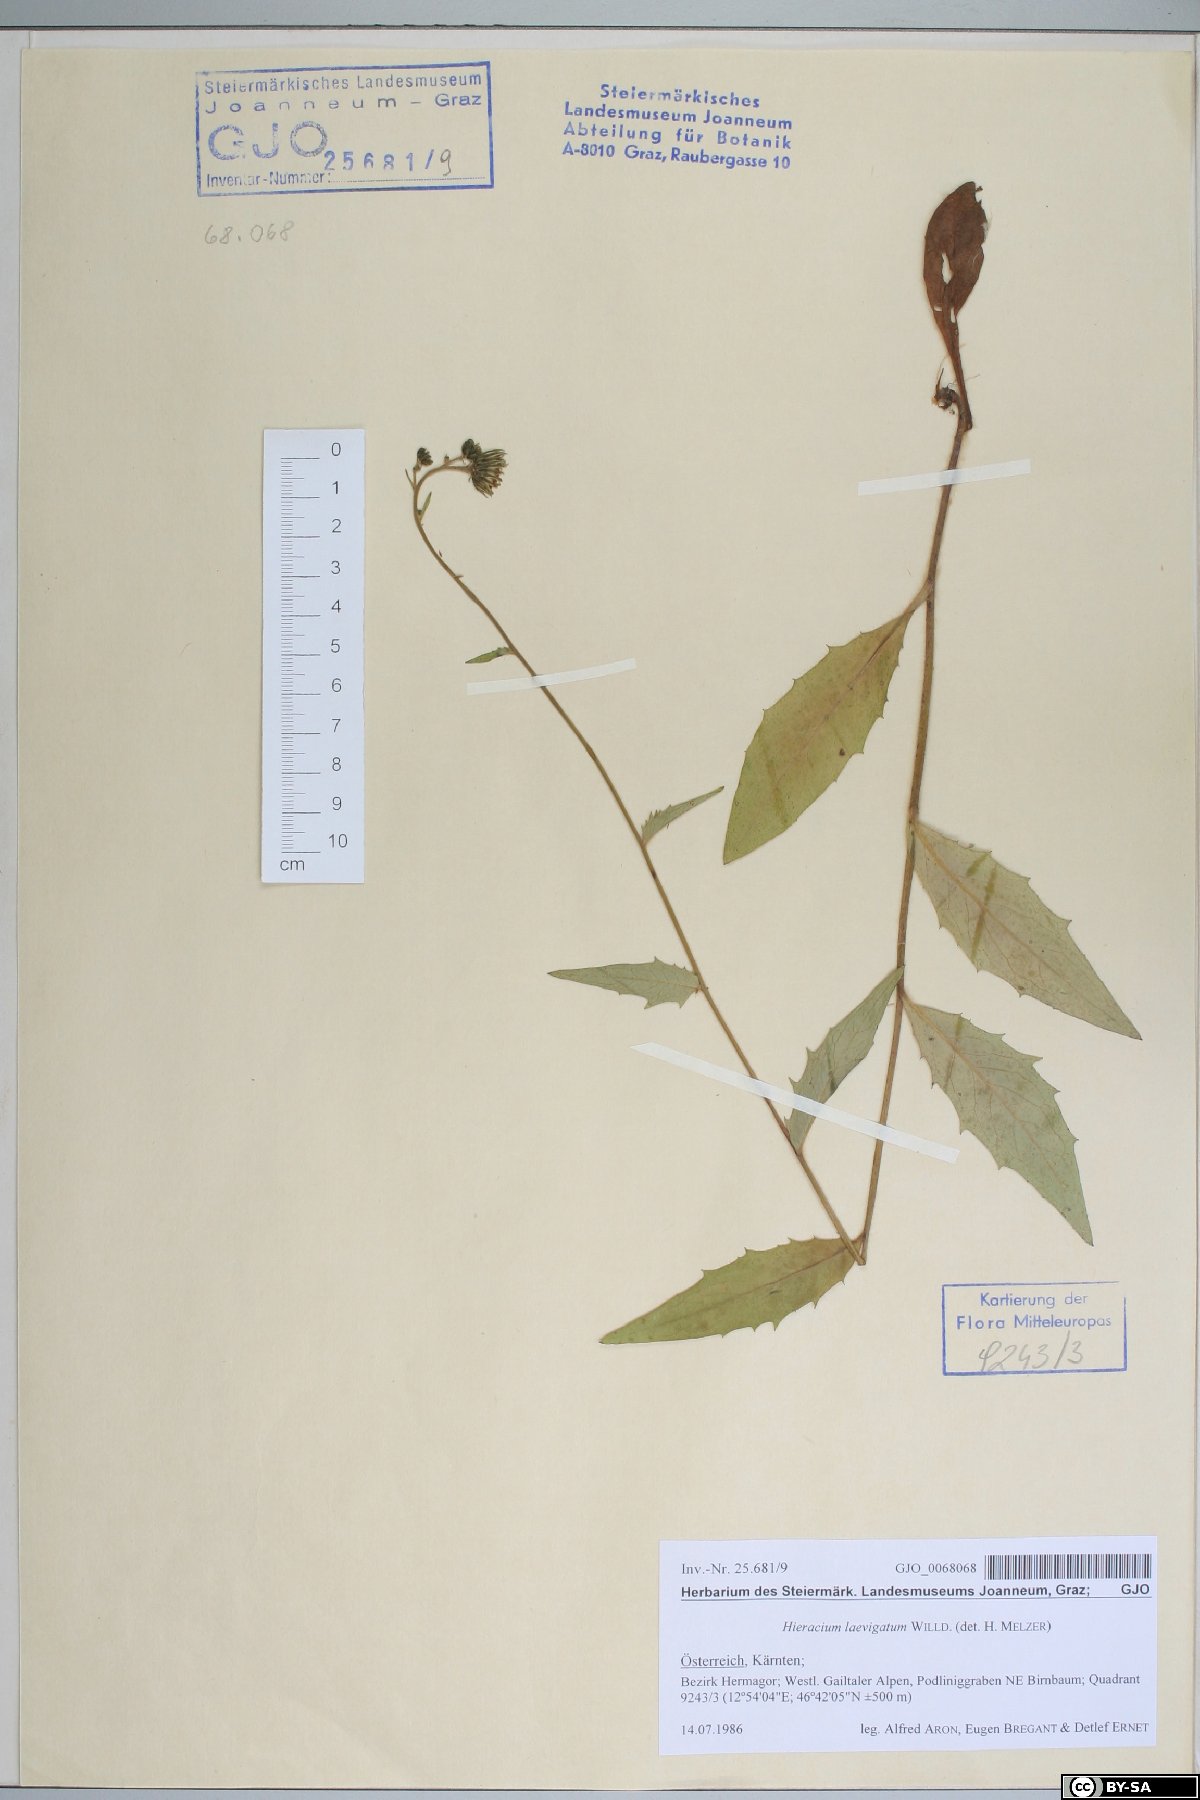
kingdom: Plantae
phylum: Tracheophyta
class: Magnoliopsida
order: Asterales
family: Asteraceae
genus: Hieracium
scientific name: Hieracium laevigatum
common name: Smooth hawkweed
